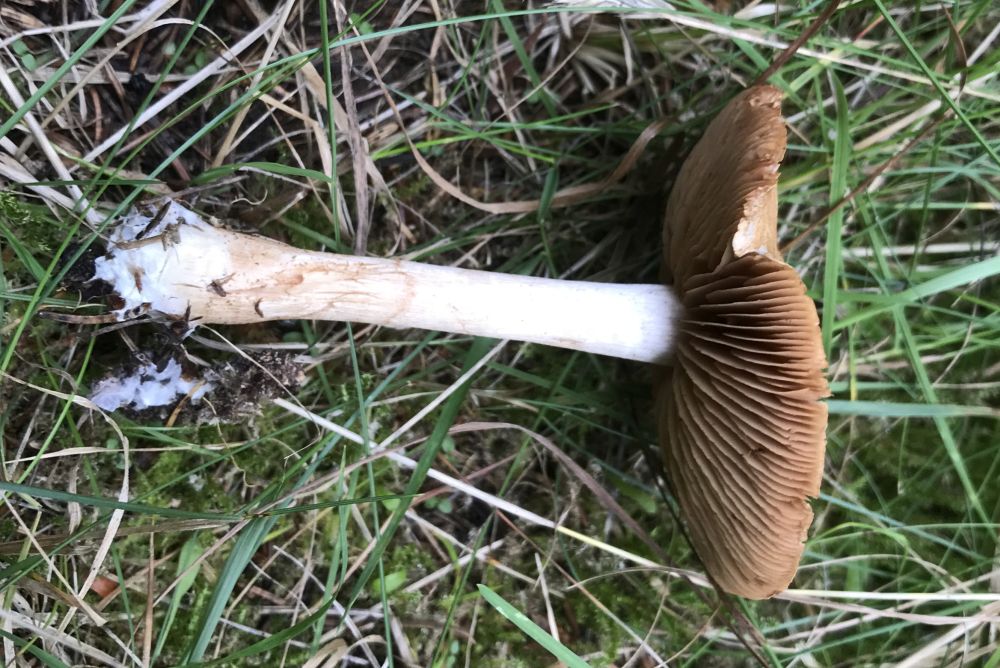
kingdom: Fungi
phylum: Basidiomycota
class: Agaricomycetes
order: Agaricales
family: Cortinariaceae
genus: Cortinarius
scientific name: Cortinarius
